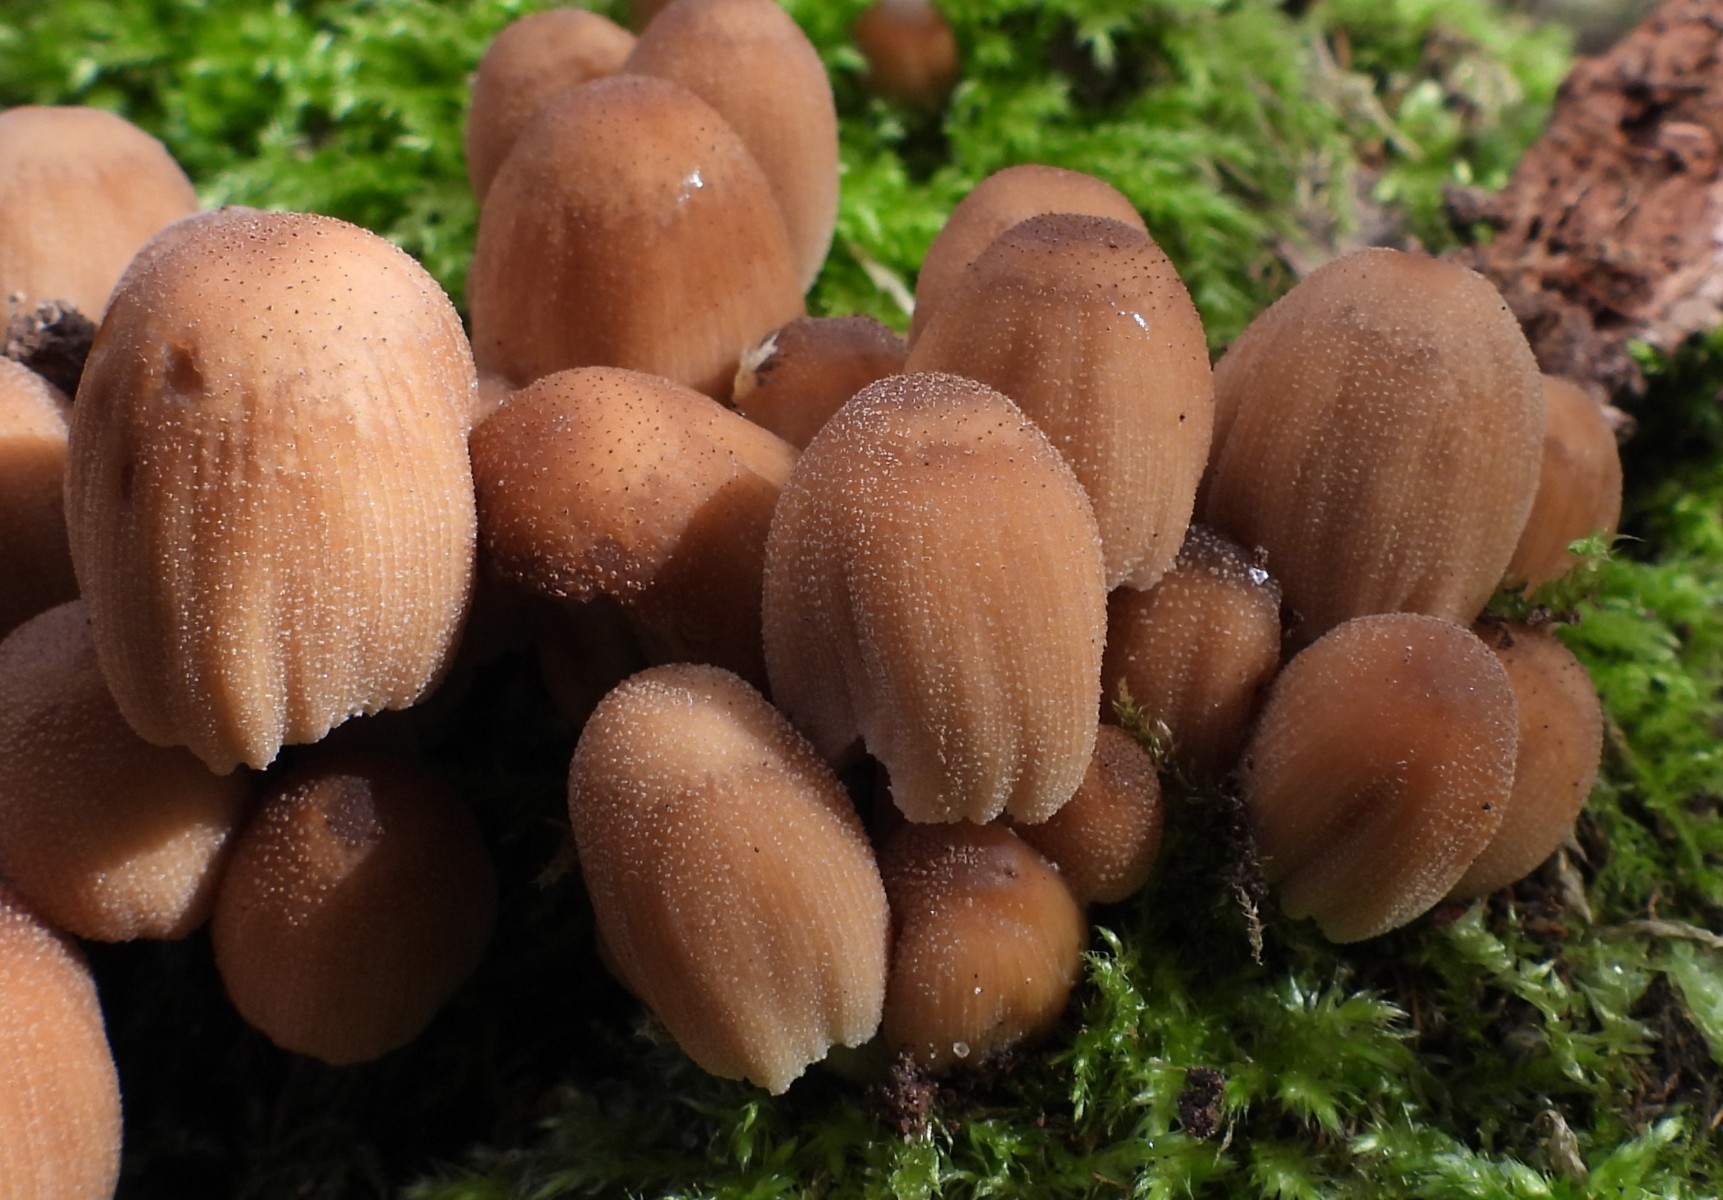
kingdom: Fungi
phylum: Basidiomycota
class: Agaricomycetes
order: Agaricales
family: Psathyrellaceae
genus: Coprinellus
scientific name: Coprinellus micaceus
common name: glimmer-blækhat
